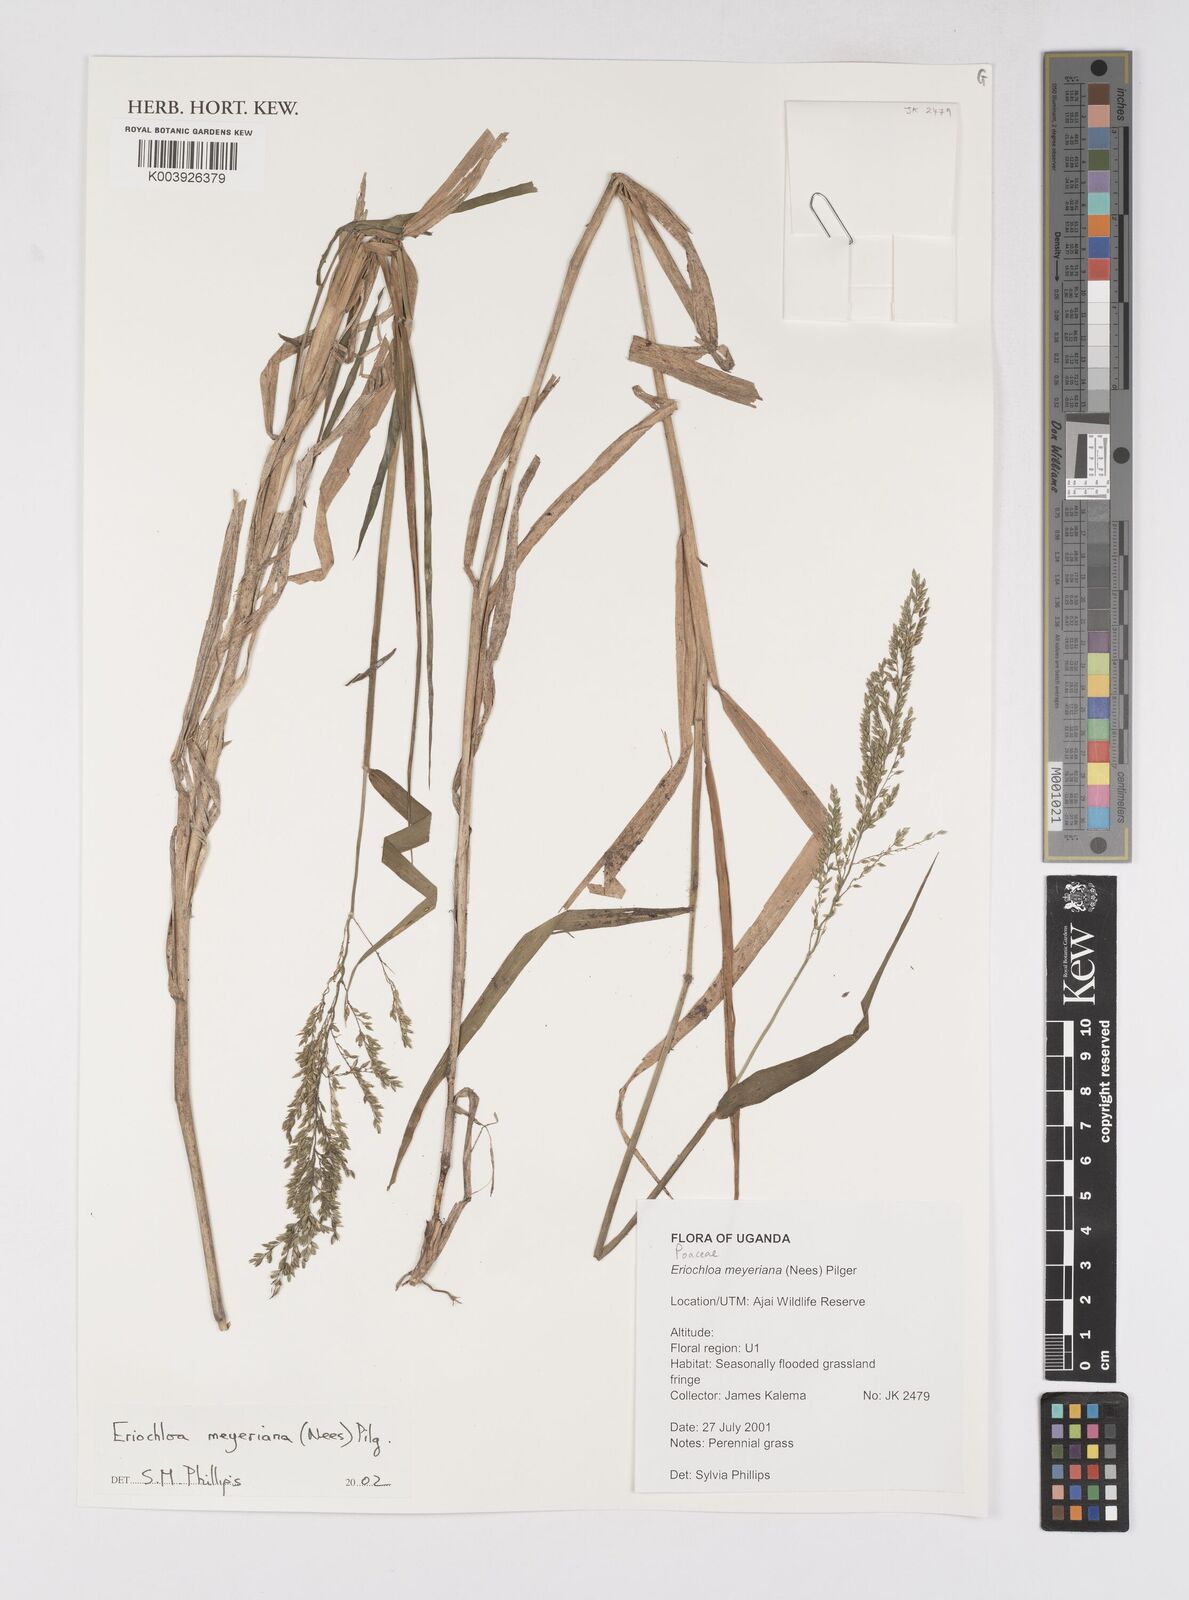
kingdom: Plantae
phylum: Tracheophyta
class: Liliopsida
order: Poales
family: Poaceae
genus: Eriochloa
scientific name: Eriochloa meyeriana
